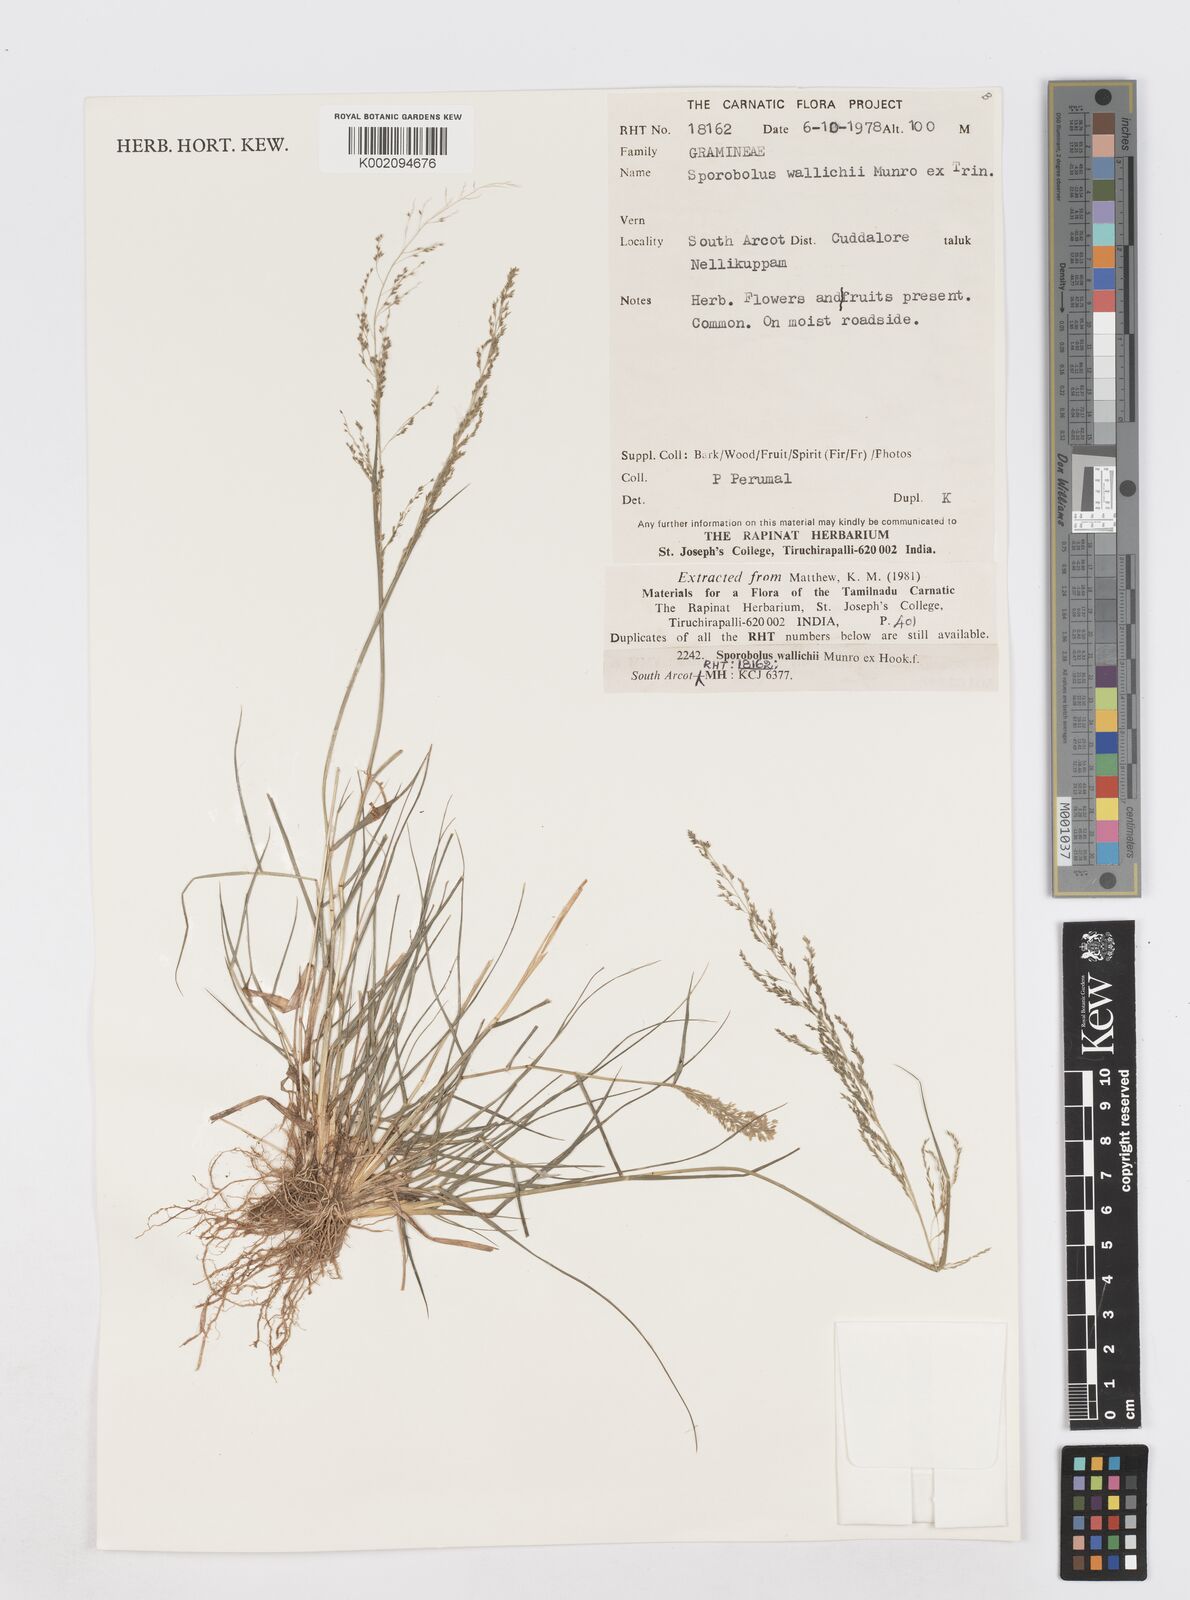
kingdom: Plantae
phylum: Tracheophyta
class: Liliopsida
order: Poales
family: Poaceae
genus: Sporobolus
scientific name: Sporobolus wallichii
